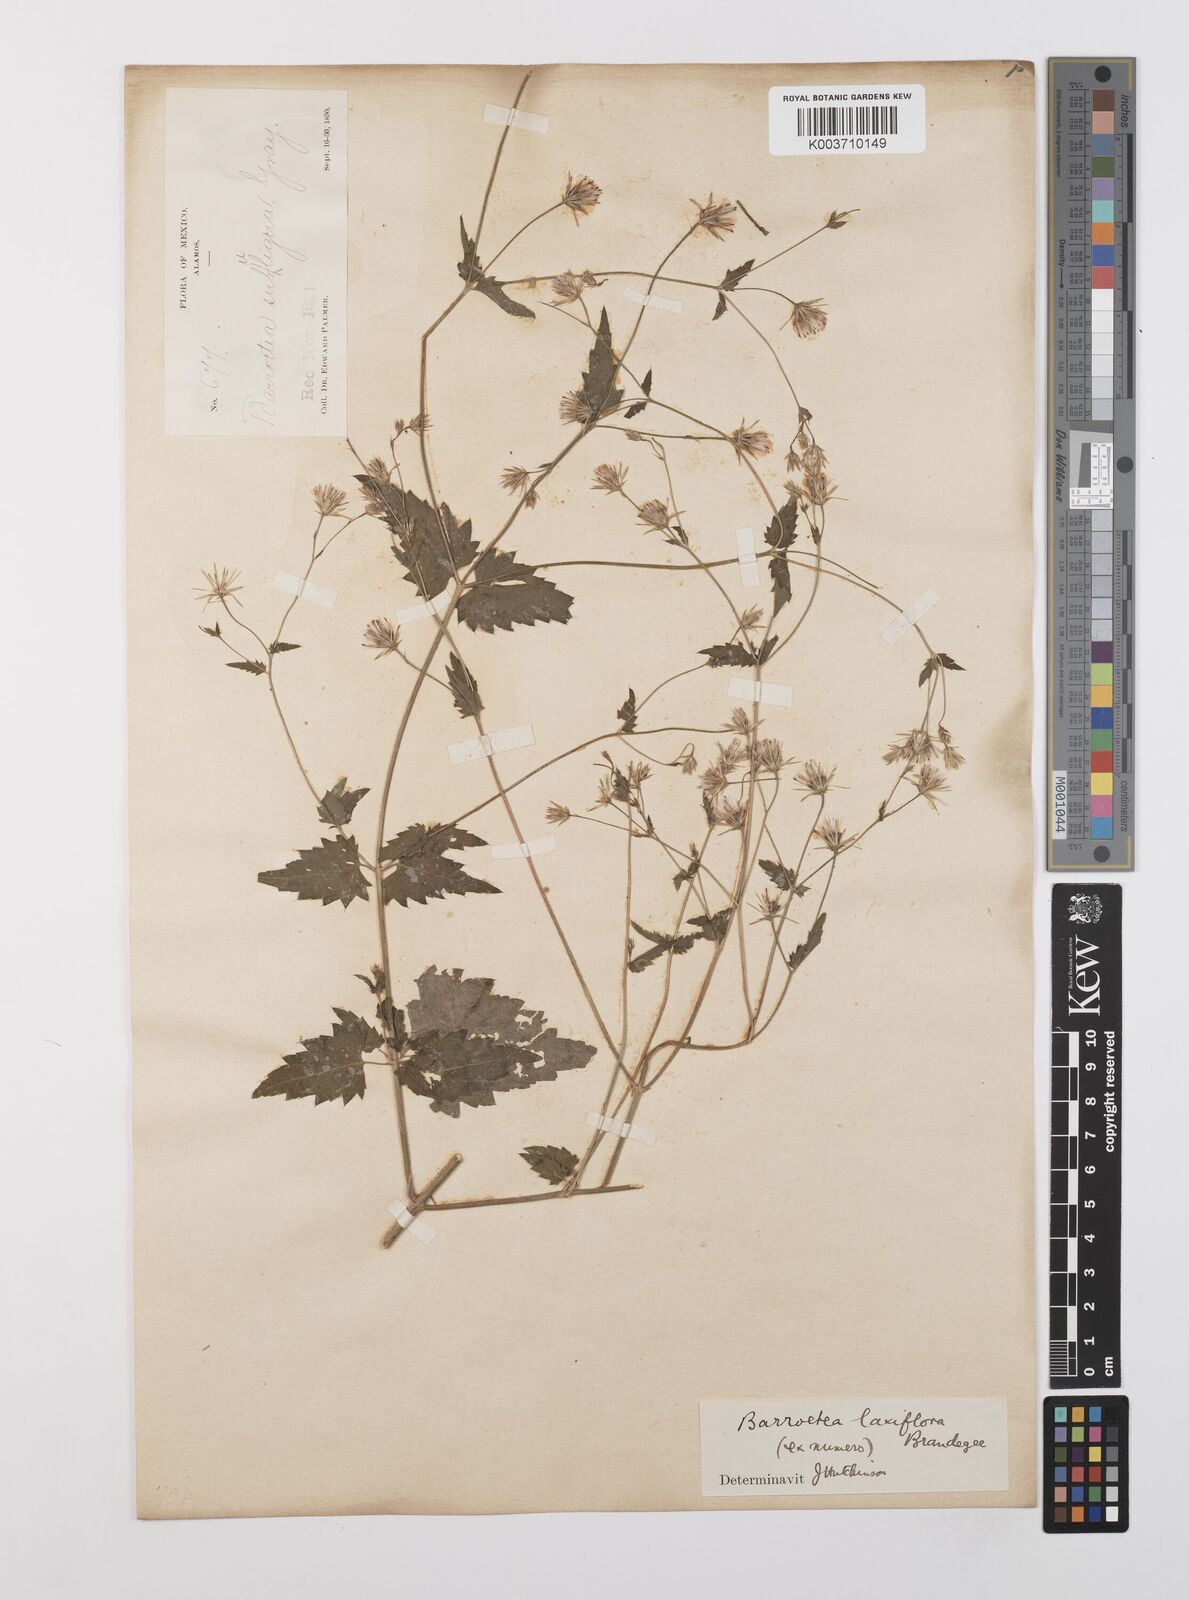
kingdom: Plantae
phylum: Tracheophyta
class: Magnoliopsida
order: Asterales
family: Asteraceae
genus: Brickellia
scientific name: Brickellia laxiflora
